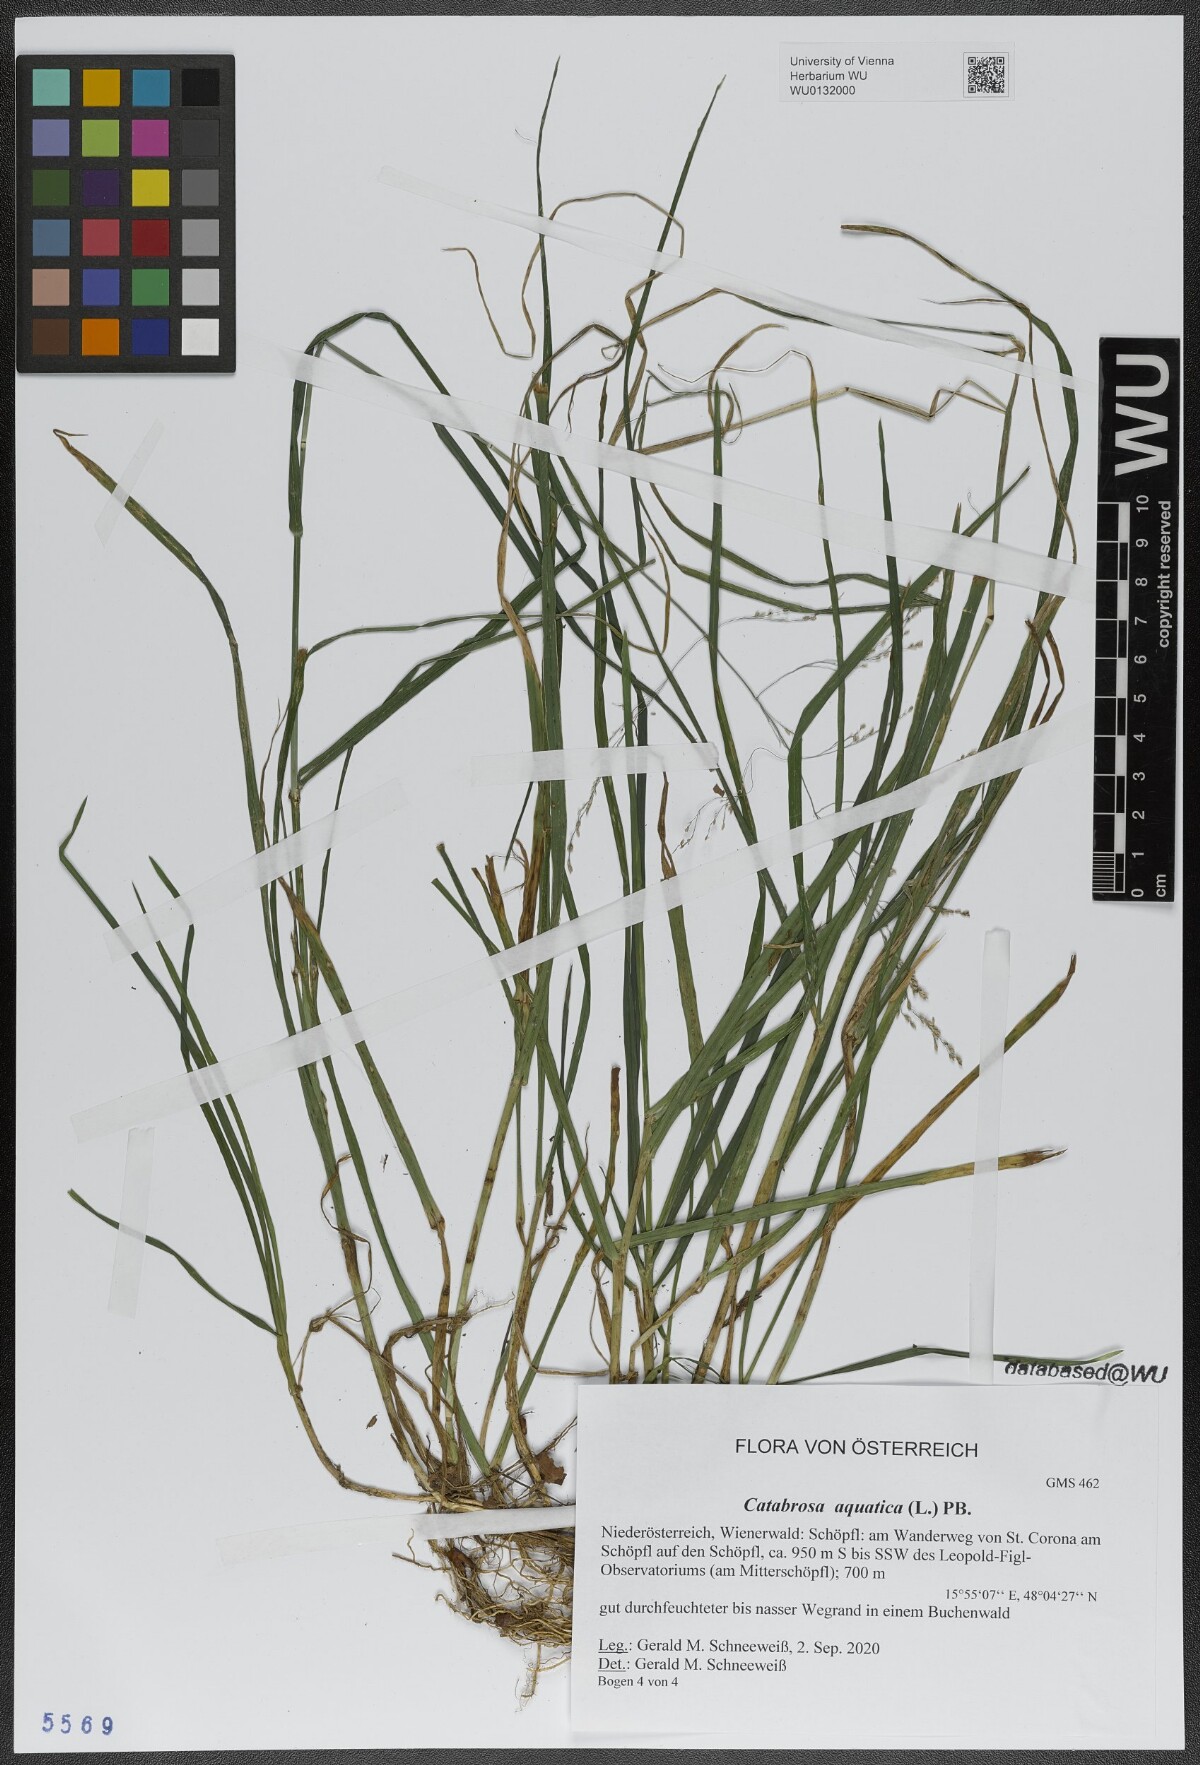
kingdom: Plantae
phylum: Tracheophyta
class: Liliopsida
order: Poales
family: Poaceae
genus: Catabrosa
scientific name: Catabrosa aquatica
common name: Whorl-grass
